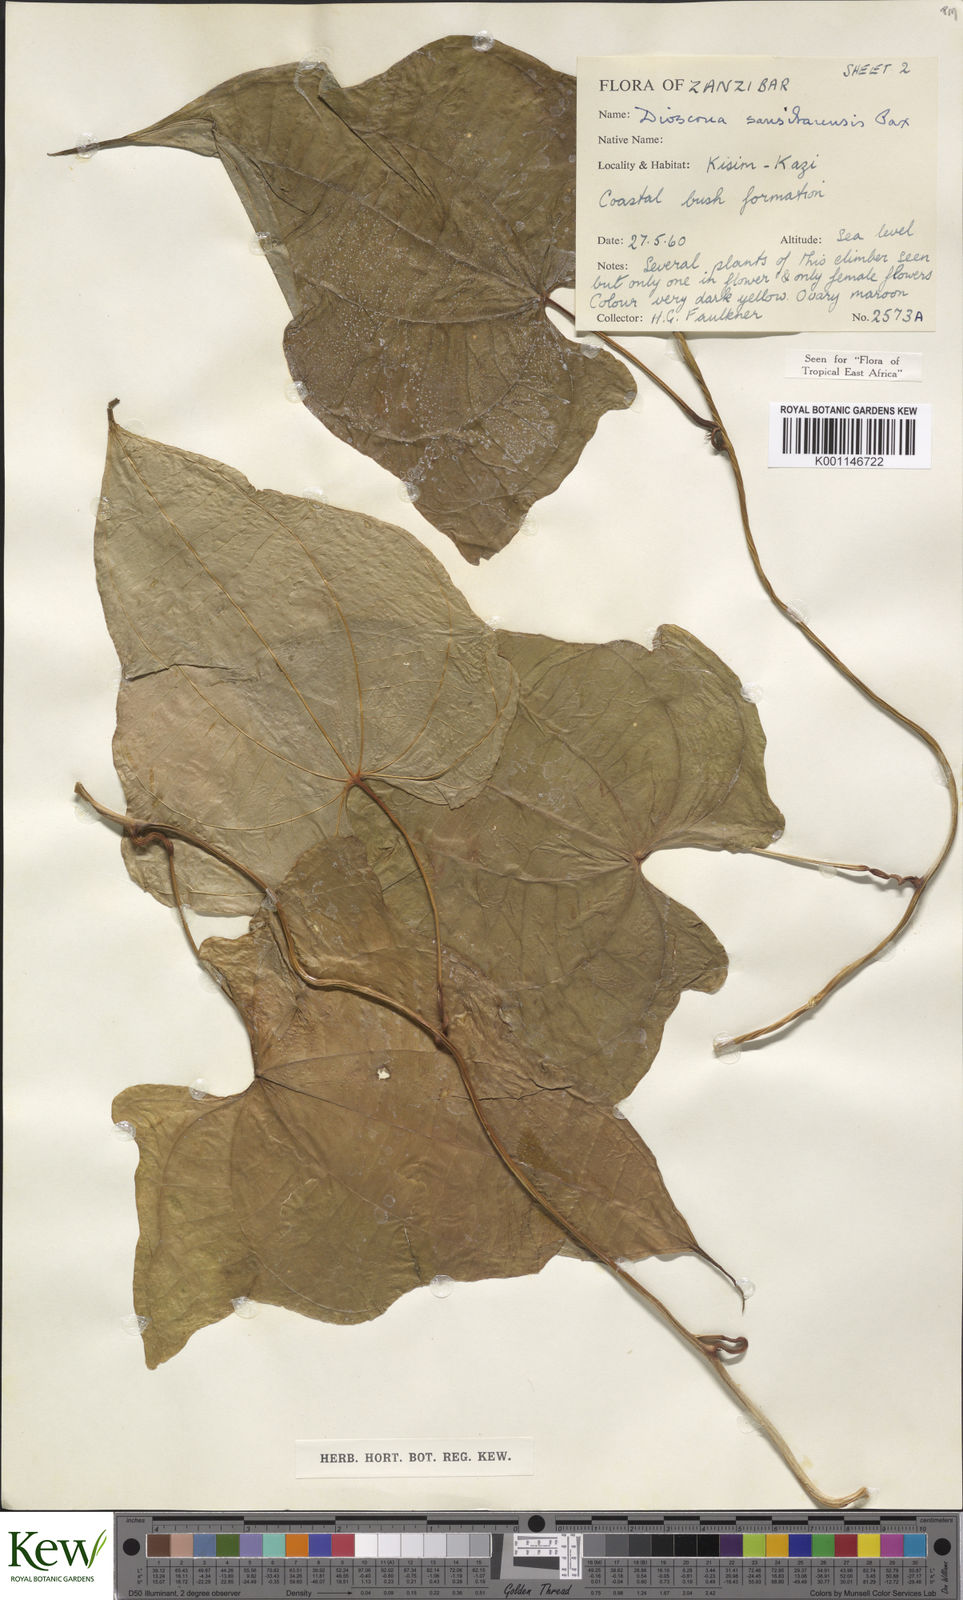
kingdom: Plantae
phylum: Tracheophyta
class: Liliopsida
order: Dioscoreales
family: Dioscoreaceae
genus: Dioscorea
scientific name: Dioscorea sansibarensis
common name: Zanzibar yam
